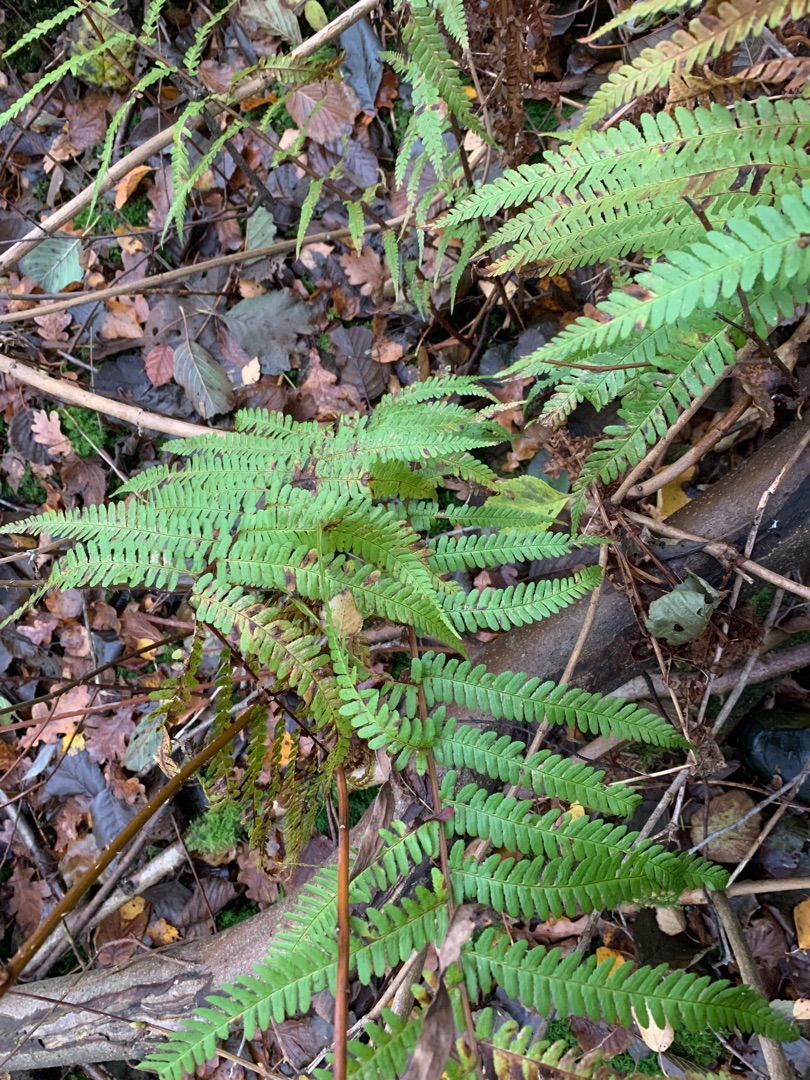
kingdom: Plantae
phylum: Tracheophyta
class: Polypodiopsida
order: Polypodiales
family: Dryopteridaceae
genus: Dryopteris
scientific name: Dryopteris filix-mas
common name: Almindelig mangeløv
